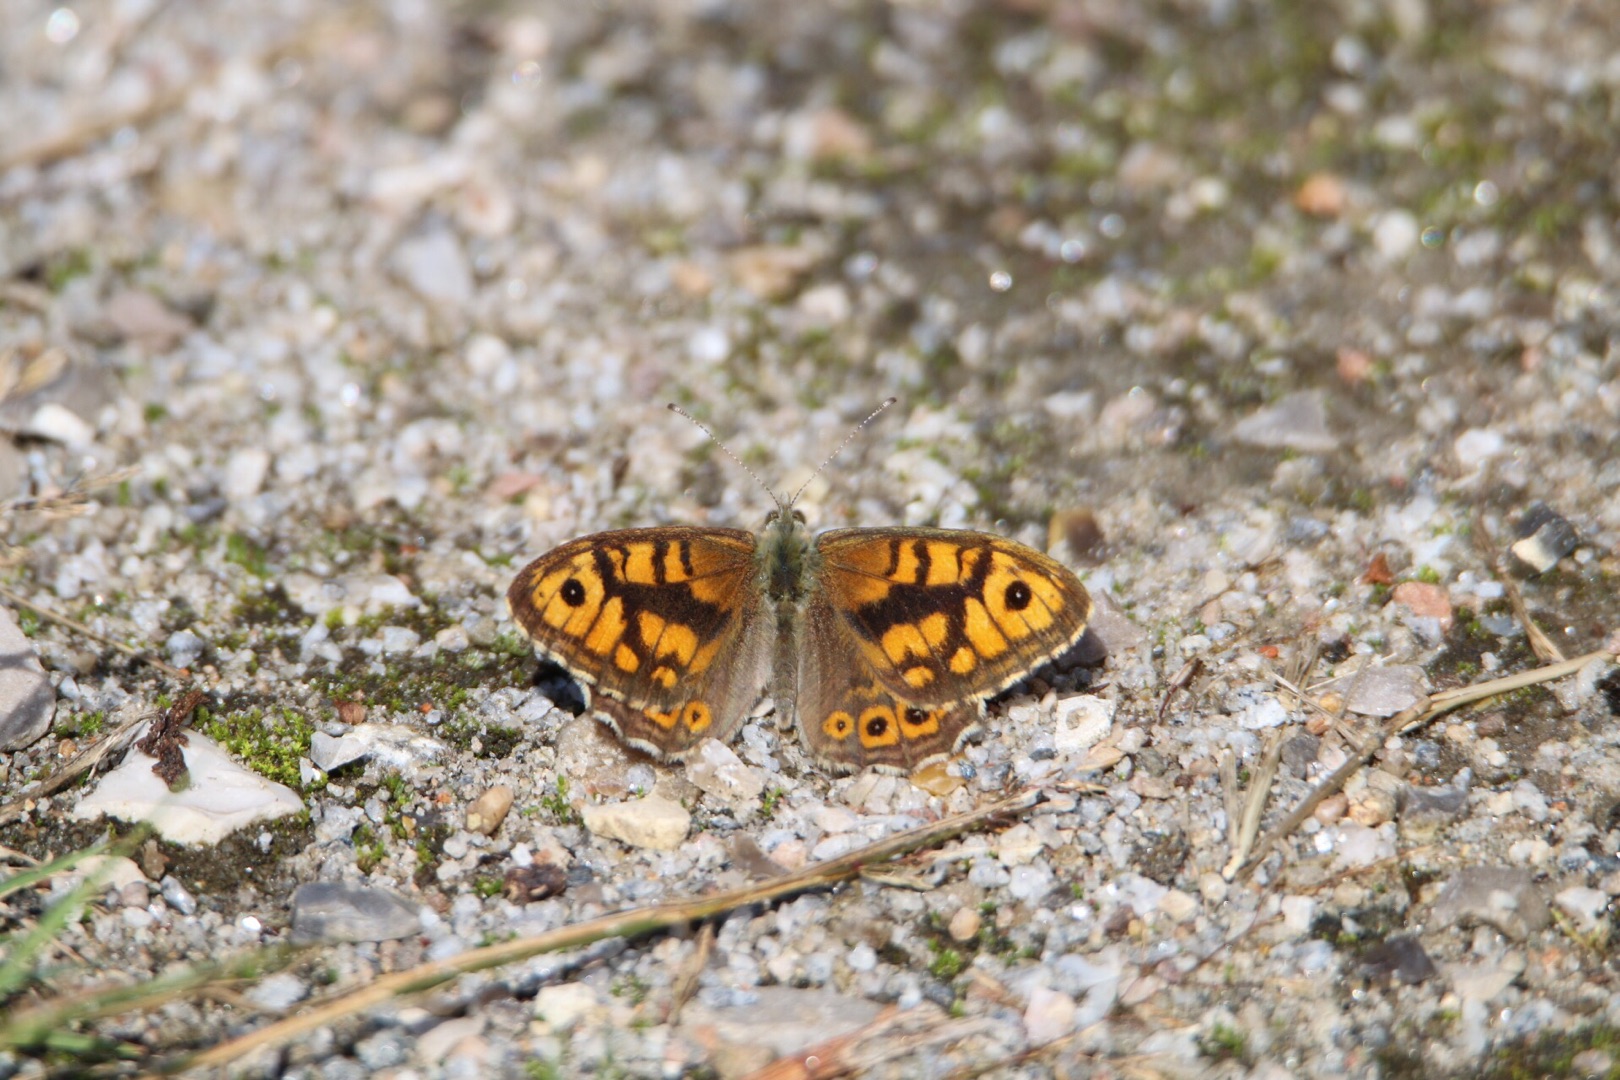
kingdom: Animalia
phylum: Arthropoda
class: Insecta
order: Lepidoptera
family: Nymphalidae
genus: Pararge
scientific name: Pararge Lasiommata megera
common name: Vejrandøje
